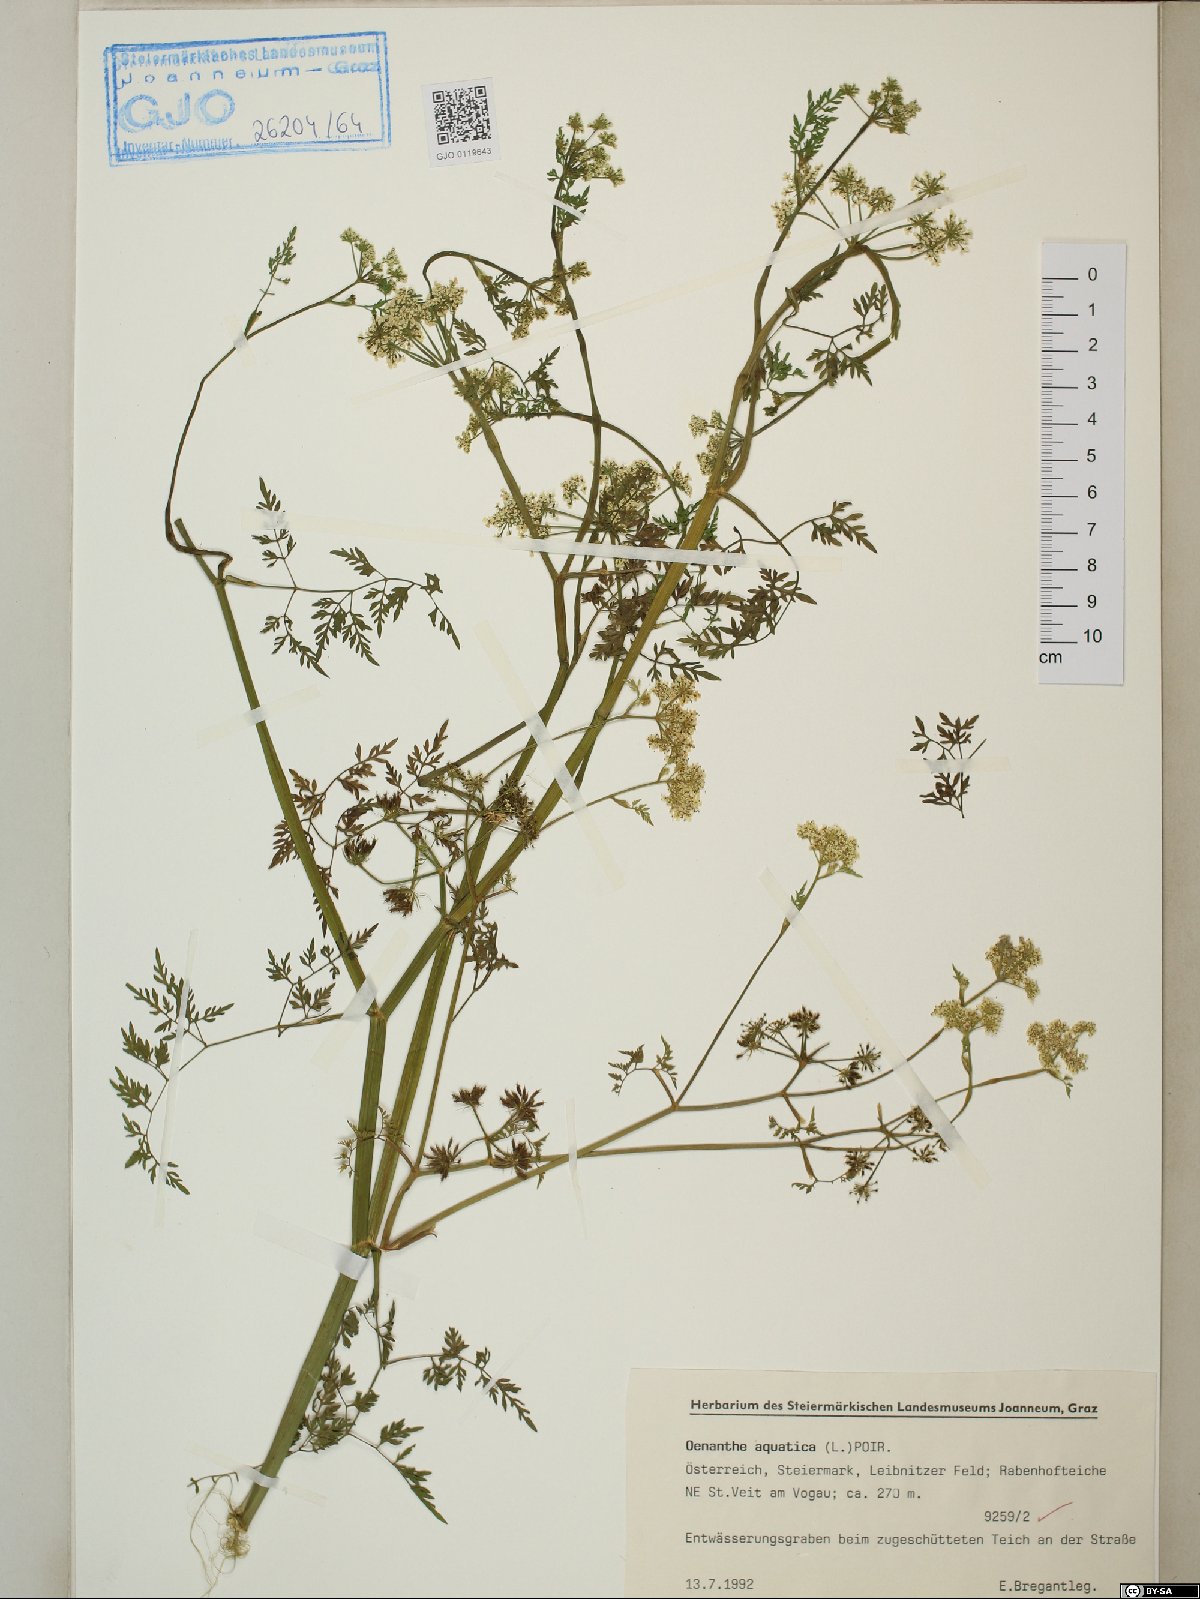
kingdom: Plantae
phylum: Tracheophyta
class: Magnoliopsida
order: Apiales
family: Apiaceae
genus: Oenanthe
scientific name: Oenanthe aquatica
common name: Fine-leaved water-dropwort
